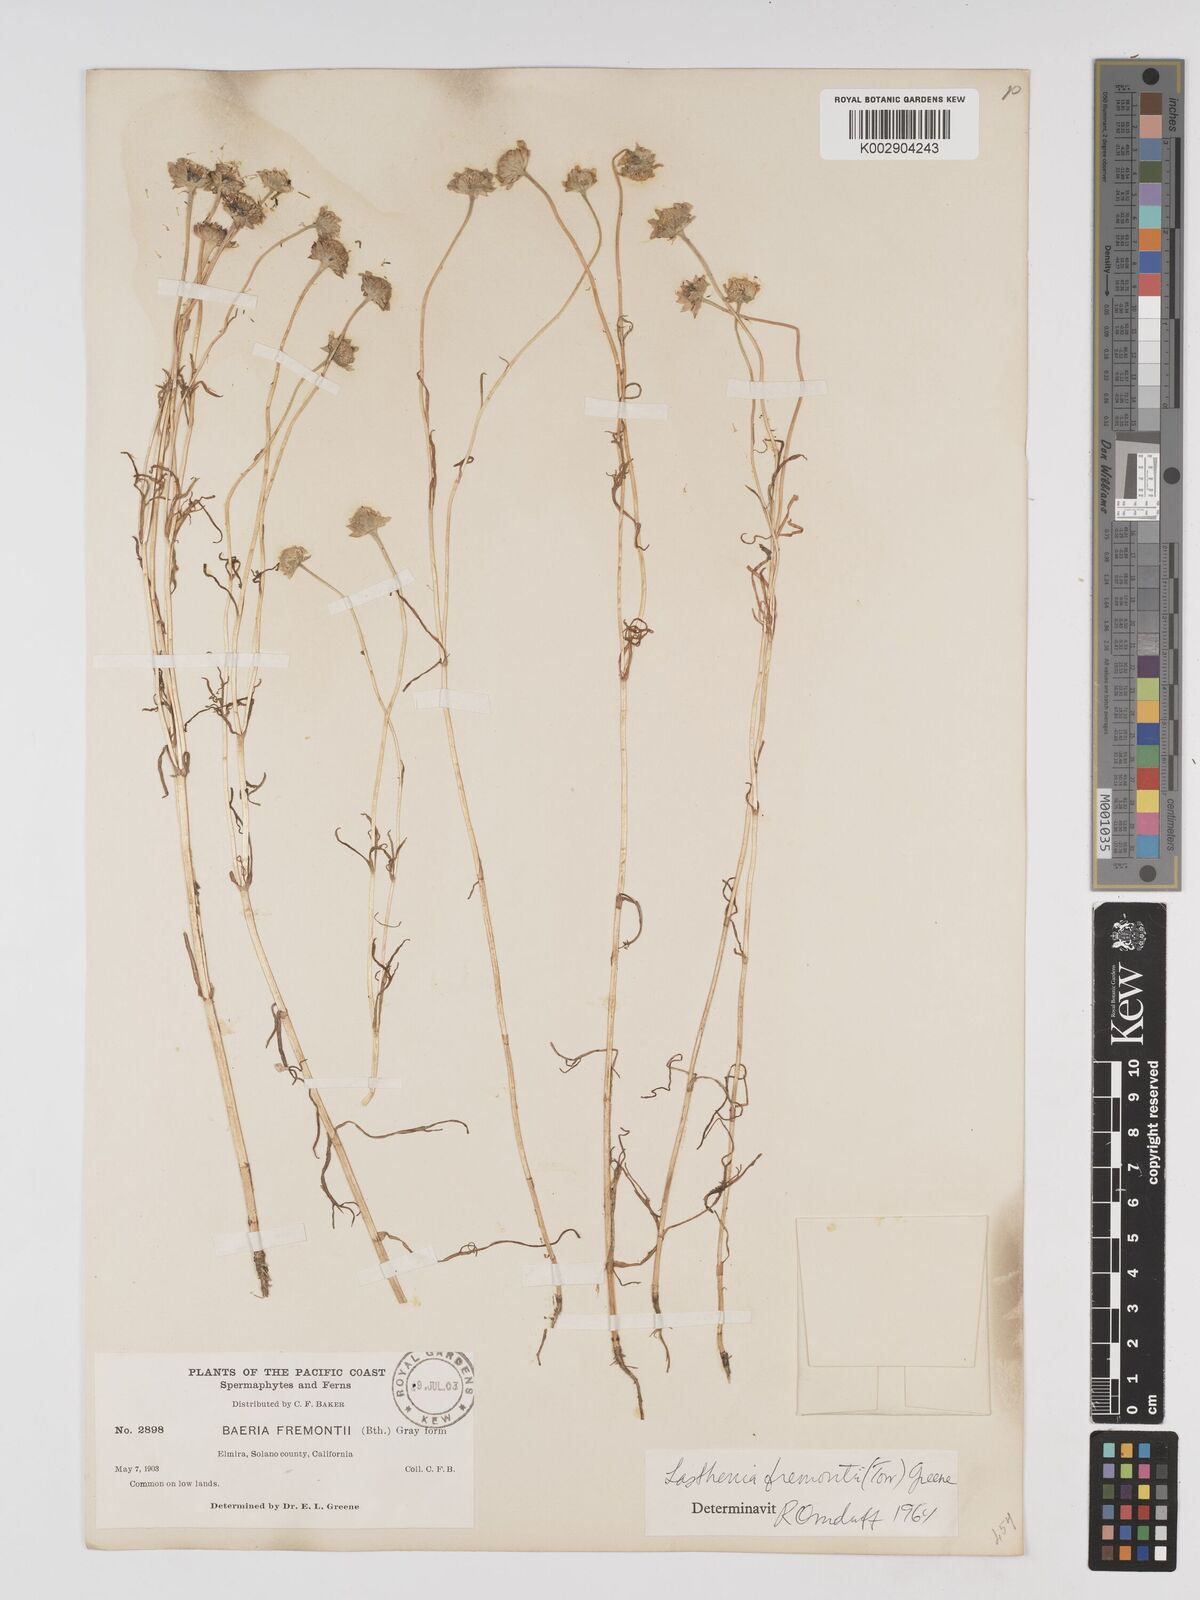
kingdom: Plantae
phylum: Tracheophyta
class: Magnoliopsida
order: Asterales
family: Asteraceae
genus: Lasthenia
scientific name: Lasthenia fremontii
